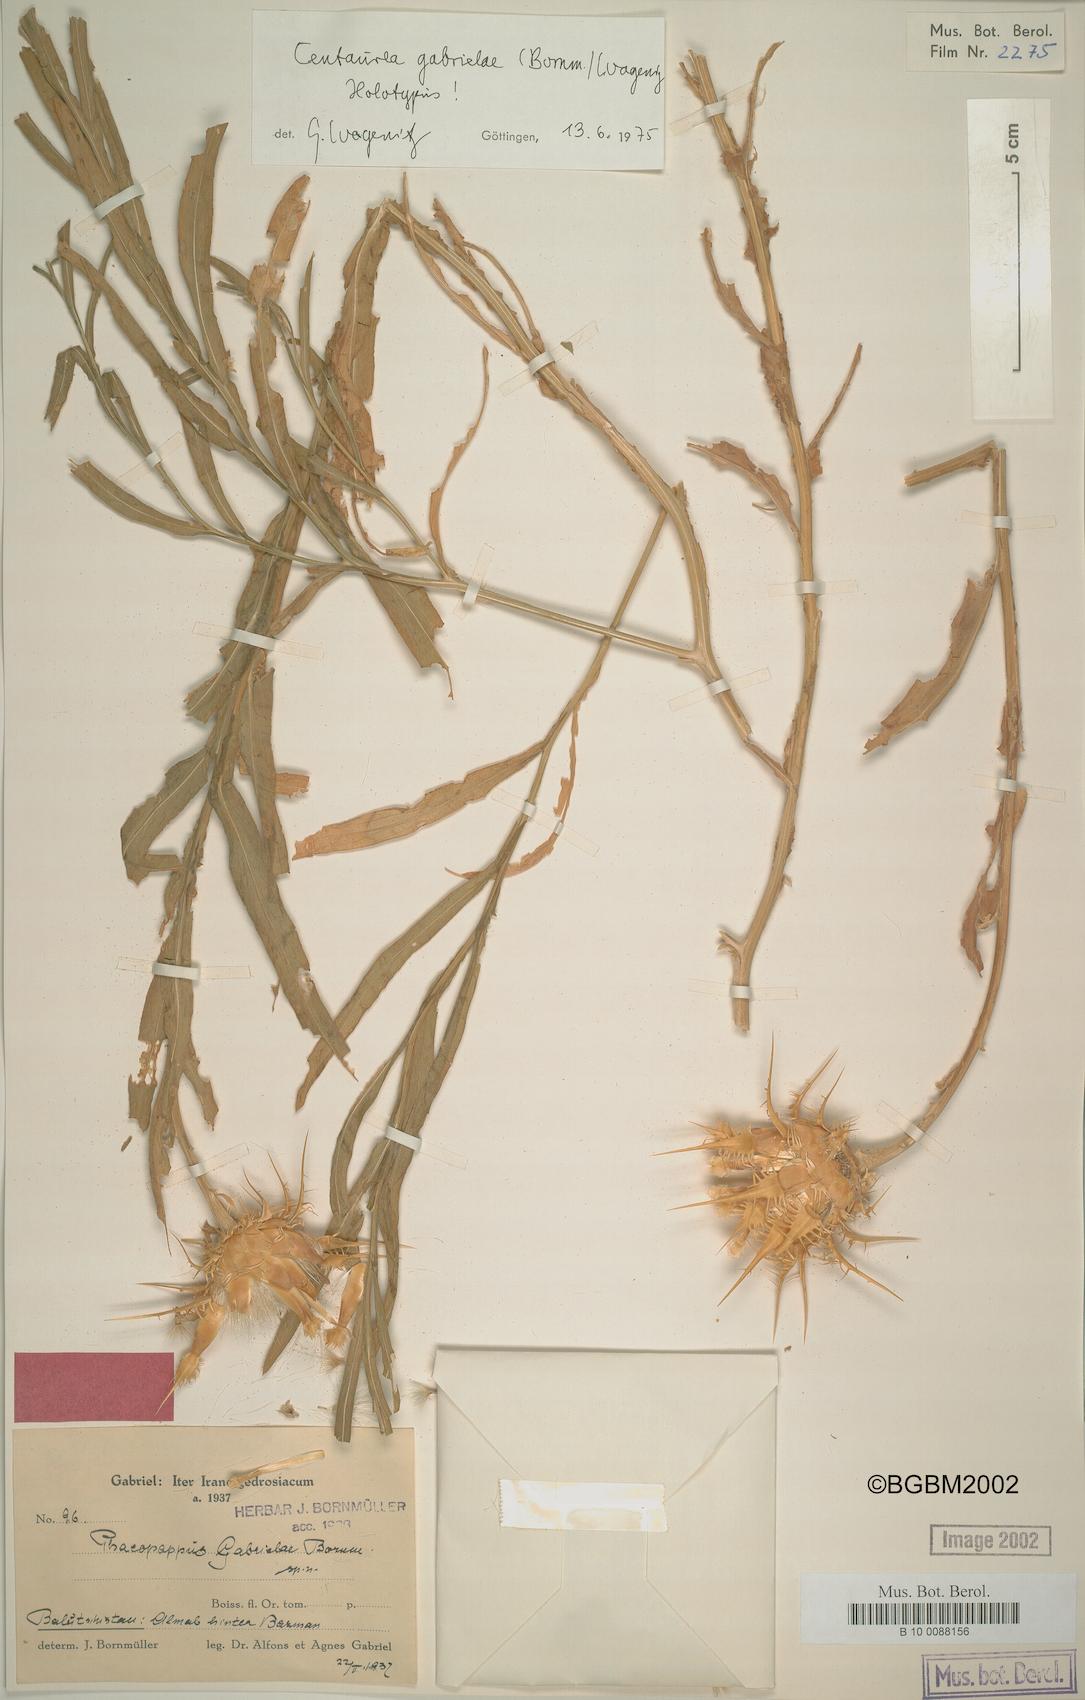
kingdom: Plantae
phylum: Tracheophyta
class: Magnoliopsida
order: Asterales
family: Asteraceae
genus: Centaurea
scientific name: Centaurea gabrieliae
